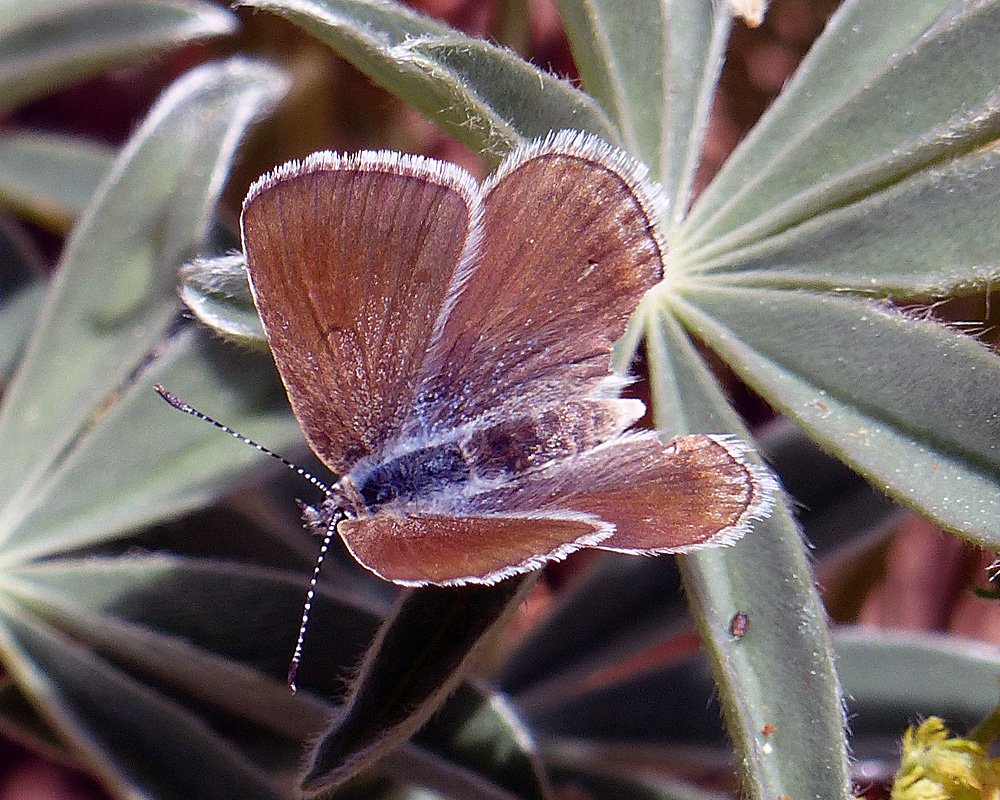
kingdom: Animalia
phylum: Arthropoda
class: Insecta
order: Lepidoptera
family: Lycaenidae
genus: Icaricia
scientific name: Icaricia icarioides
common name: Boisduval's Blue
